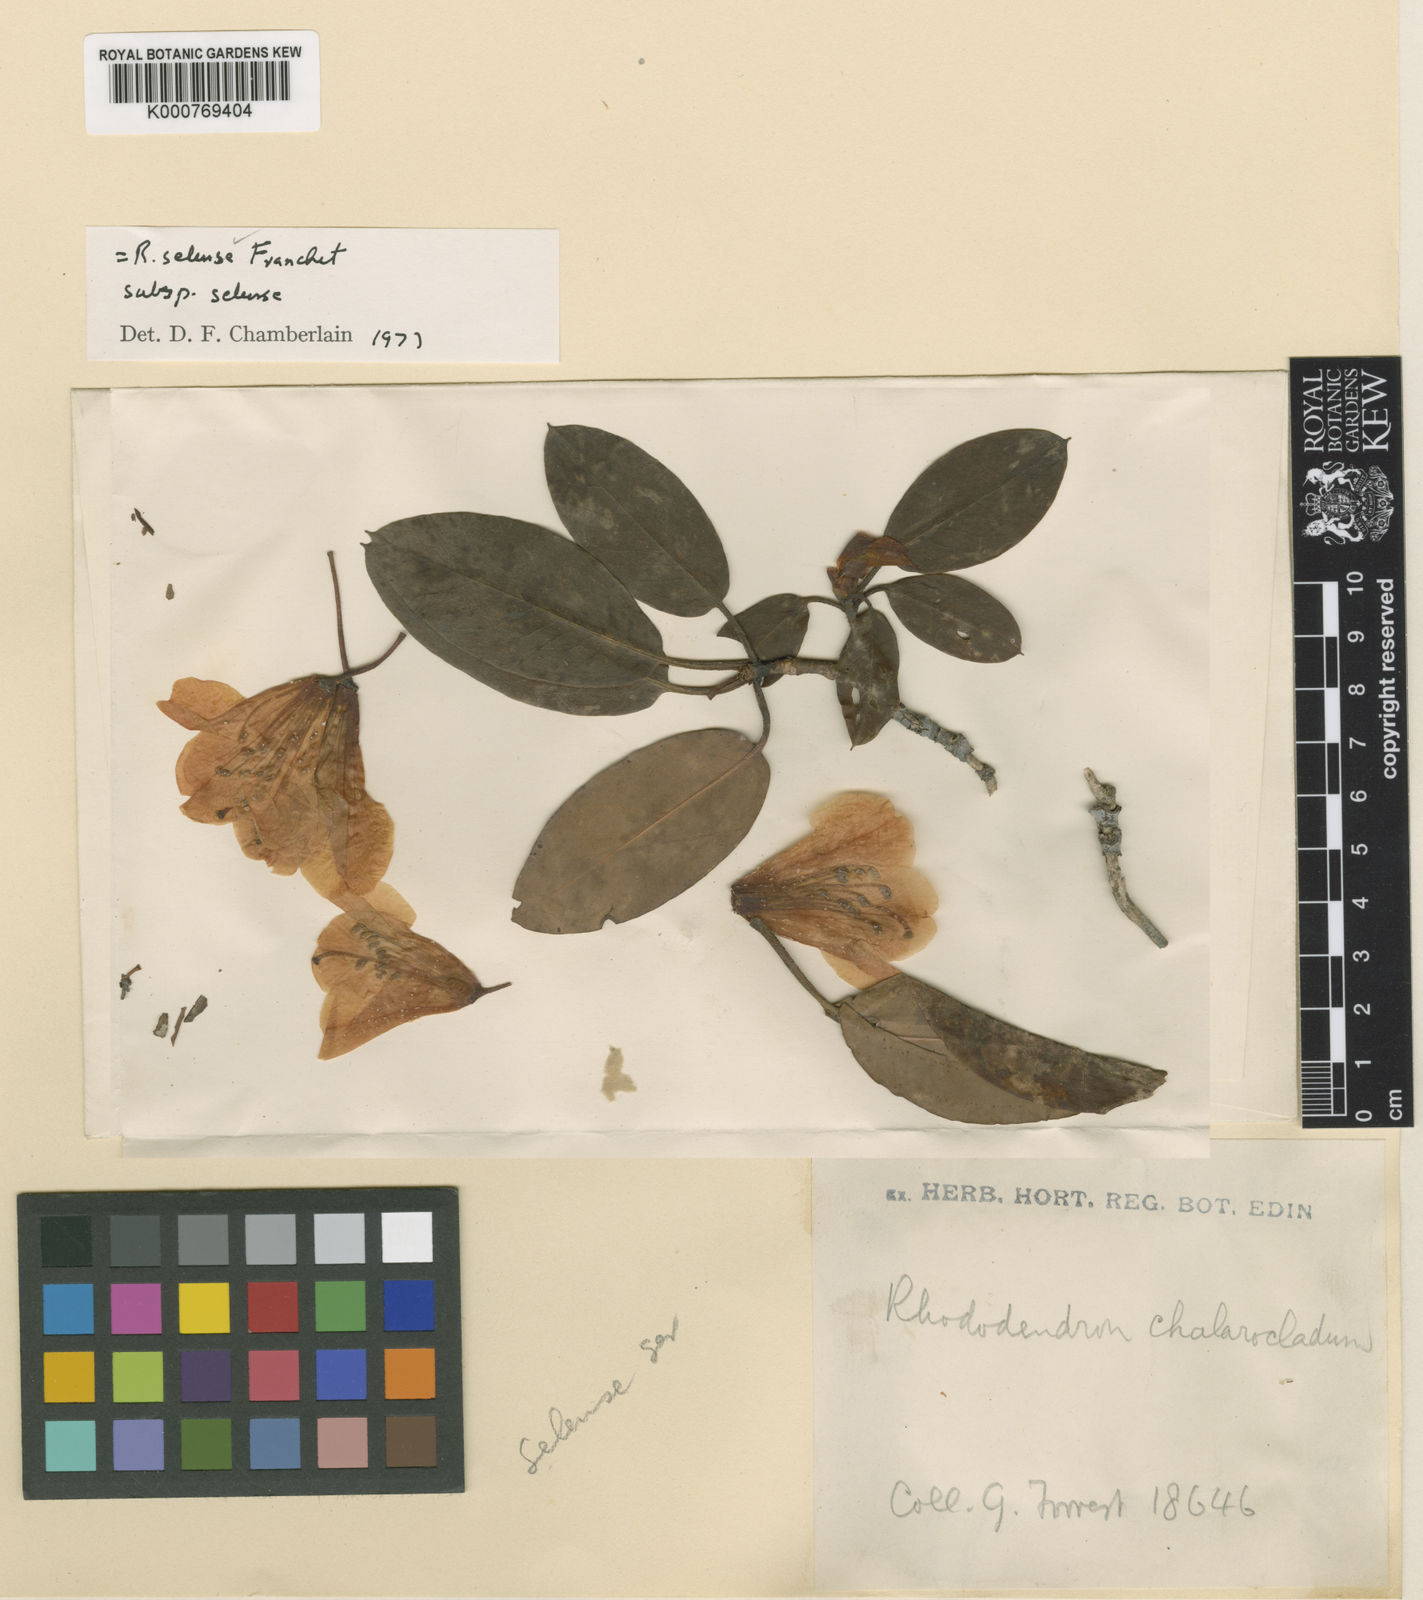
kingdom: Plantae
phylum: Tracheophyta
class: Magnoliopsida
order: Ericales
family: Ericaceae
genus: Rhododendron
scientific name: Rhododendron selense
